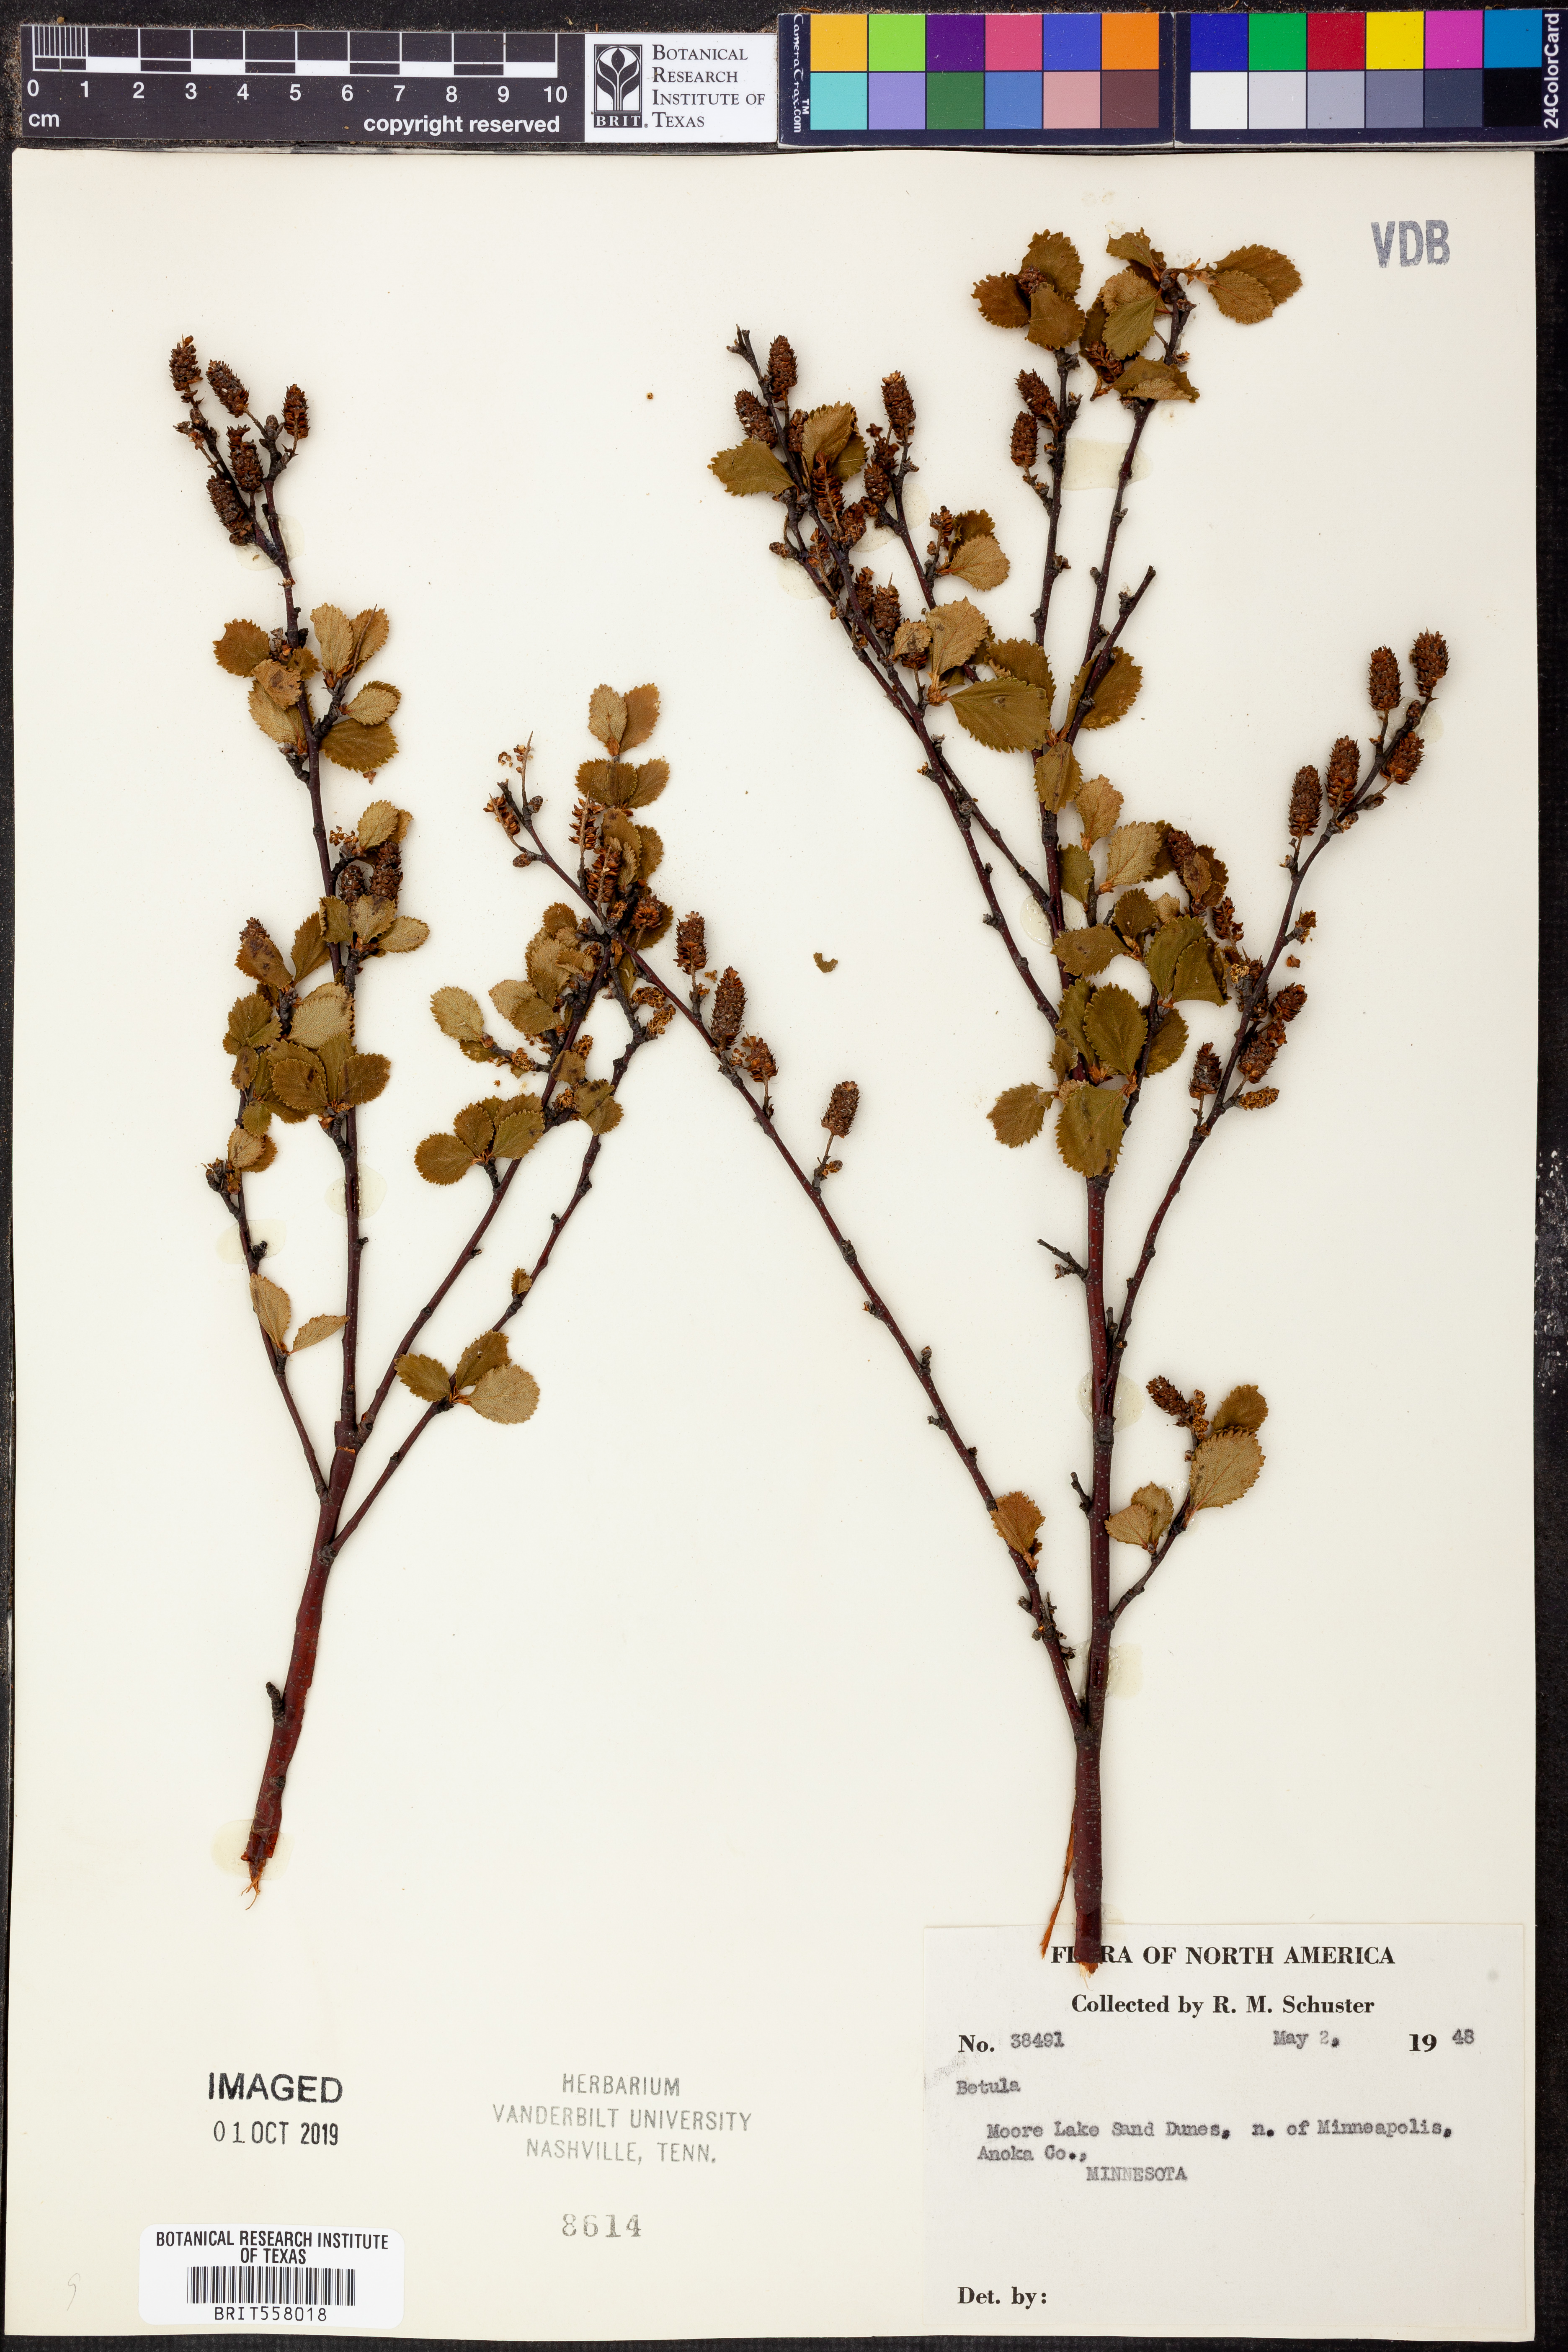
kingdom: Plantae
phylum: Tracheophyta
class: Magnoliopsida
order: Fagales
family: Betulaceae
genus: Betula
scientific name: Betula
